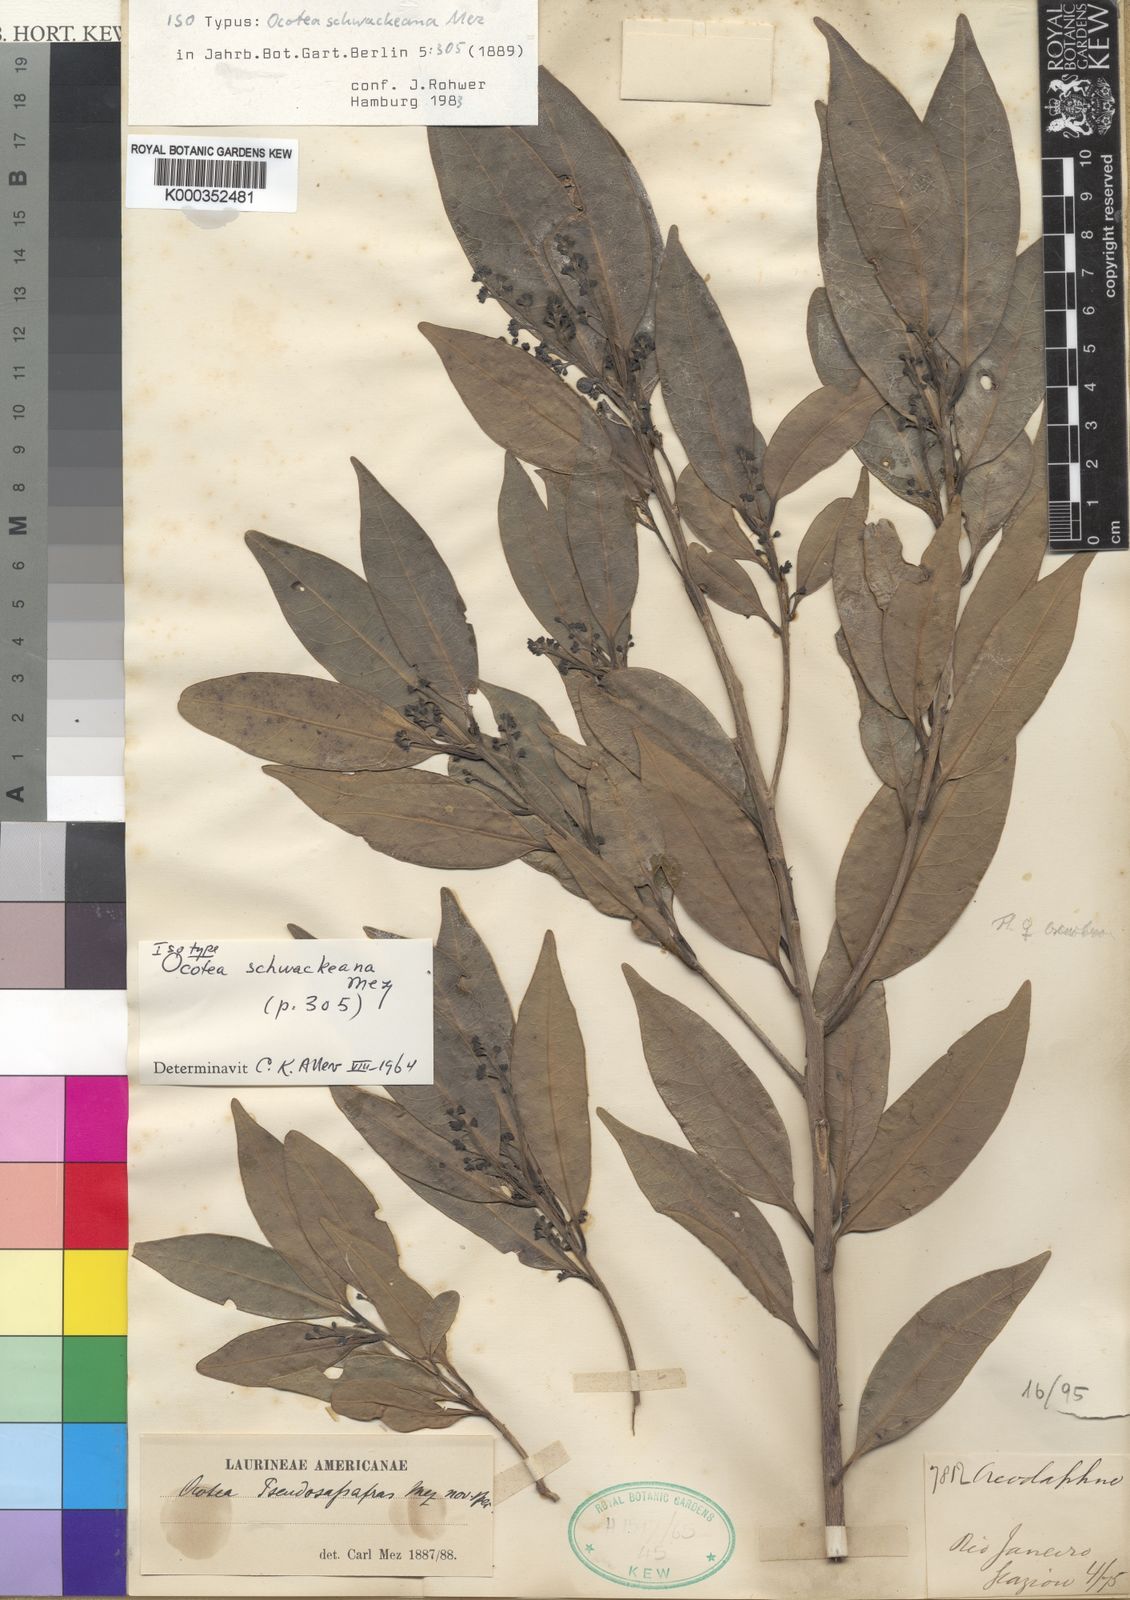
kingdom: Plantae
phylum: Tracheophyta
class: Magnoliopsida
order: Laurales
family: Lauraceae
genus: Ocotea
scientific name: Ocotea schwackeana
